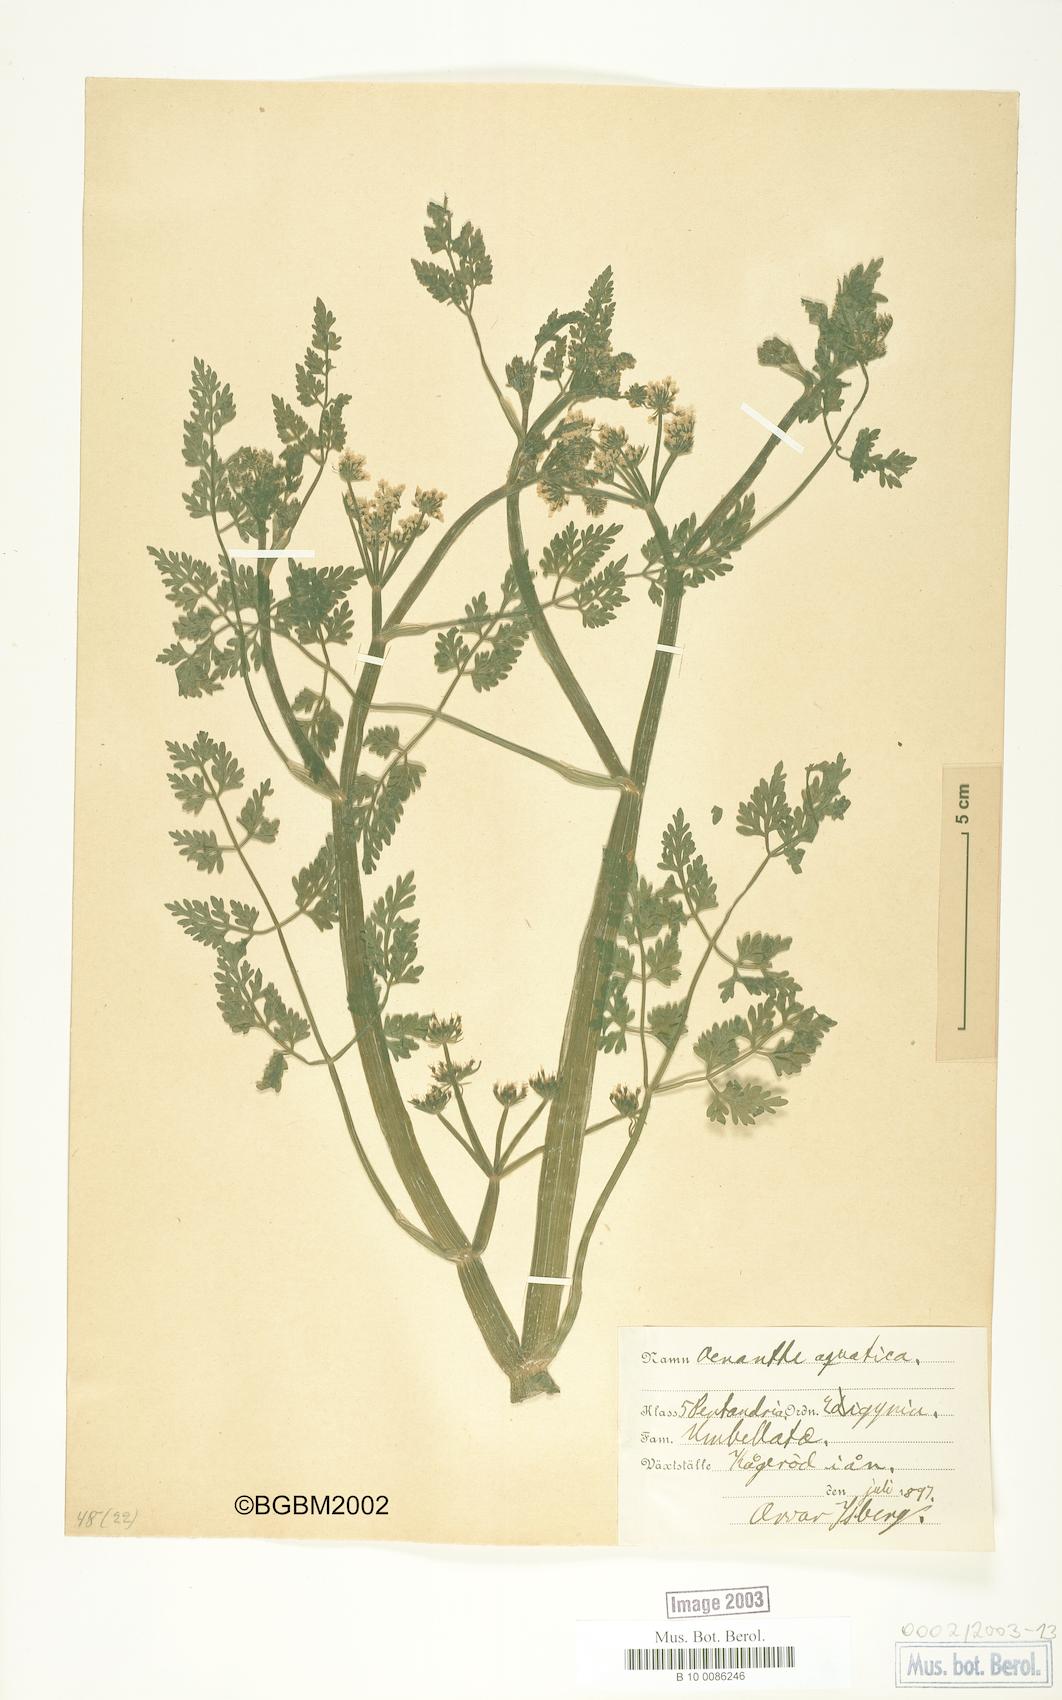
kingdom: Plantae
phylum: Tracheophyta
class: Magnoliopsida
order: Apiales
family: Apiaceae
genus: Oenanthe
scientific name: Oenanthe aquatica
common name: Fine-leaved water-dropwort
